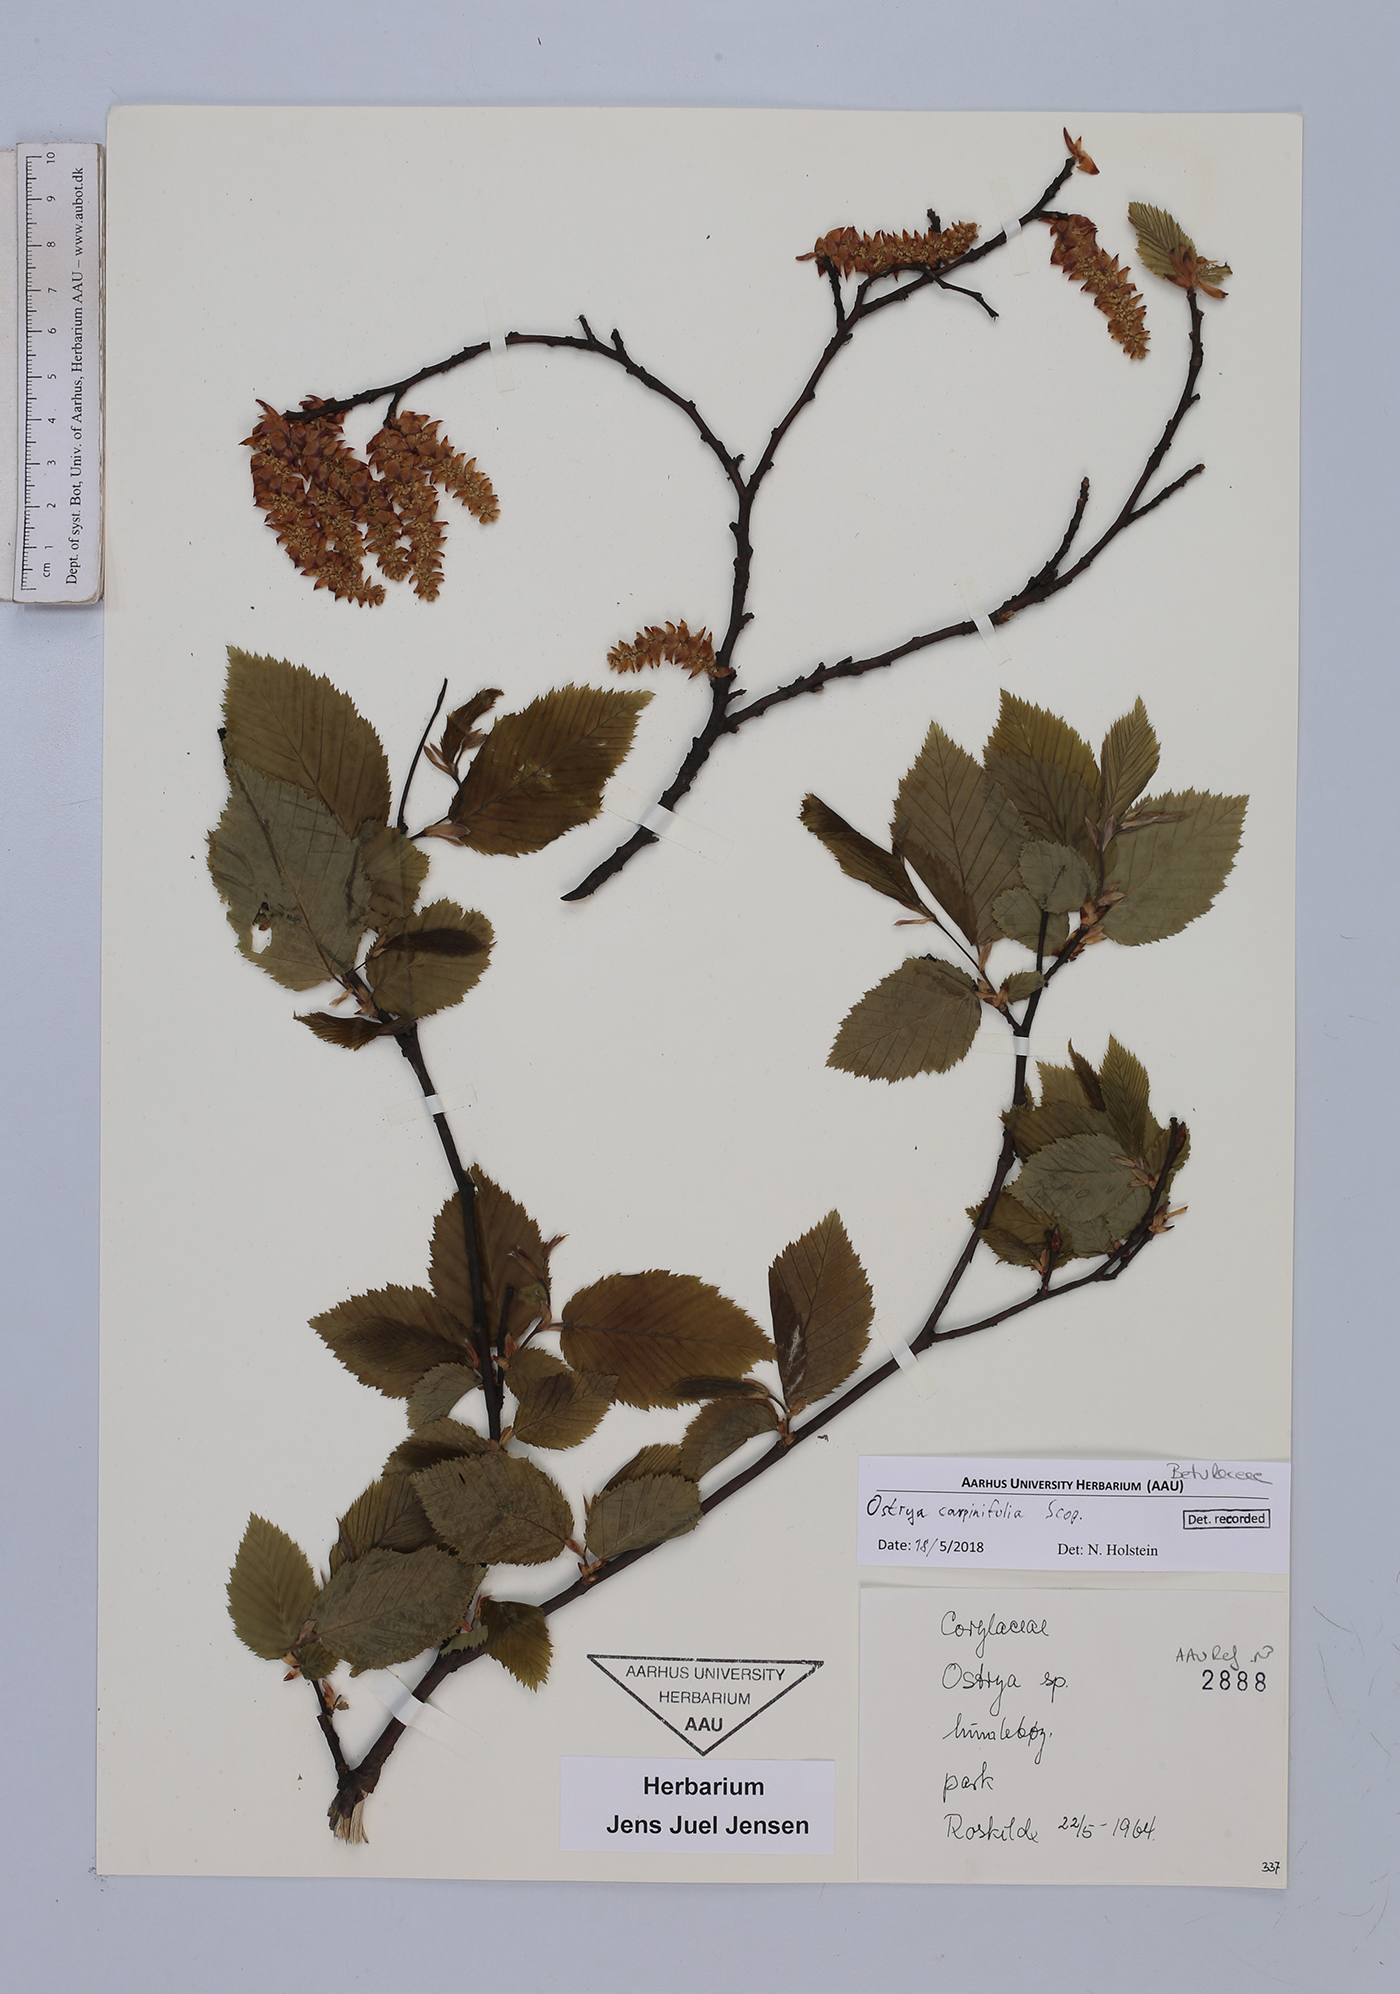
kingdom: Plantae
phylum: Tracheophyta
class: Magnoliopsida
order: Fagales
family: Betulaceae
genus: Ostrya
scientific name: Ostrya carpinifolia
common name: European hop-hornbeam
